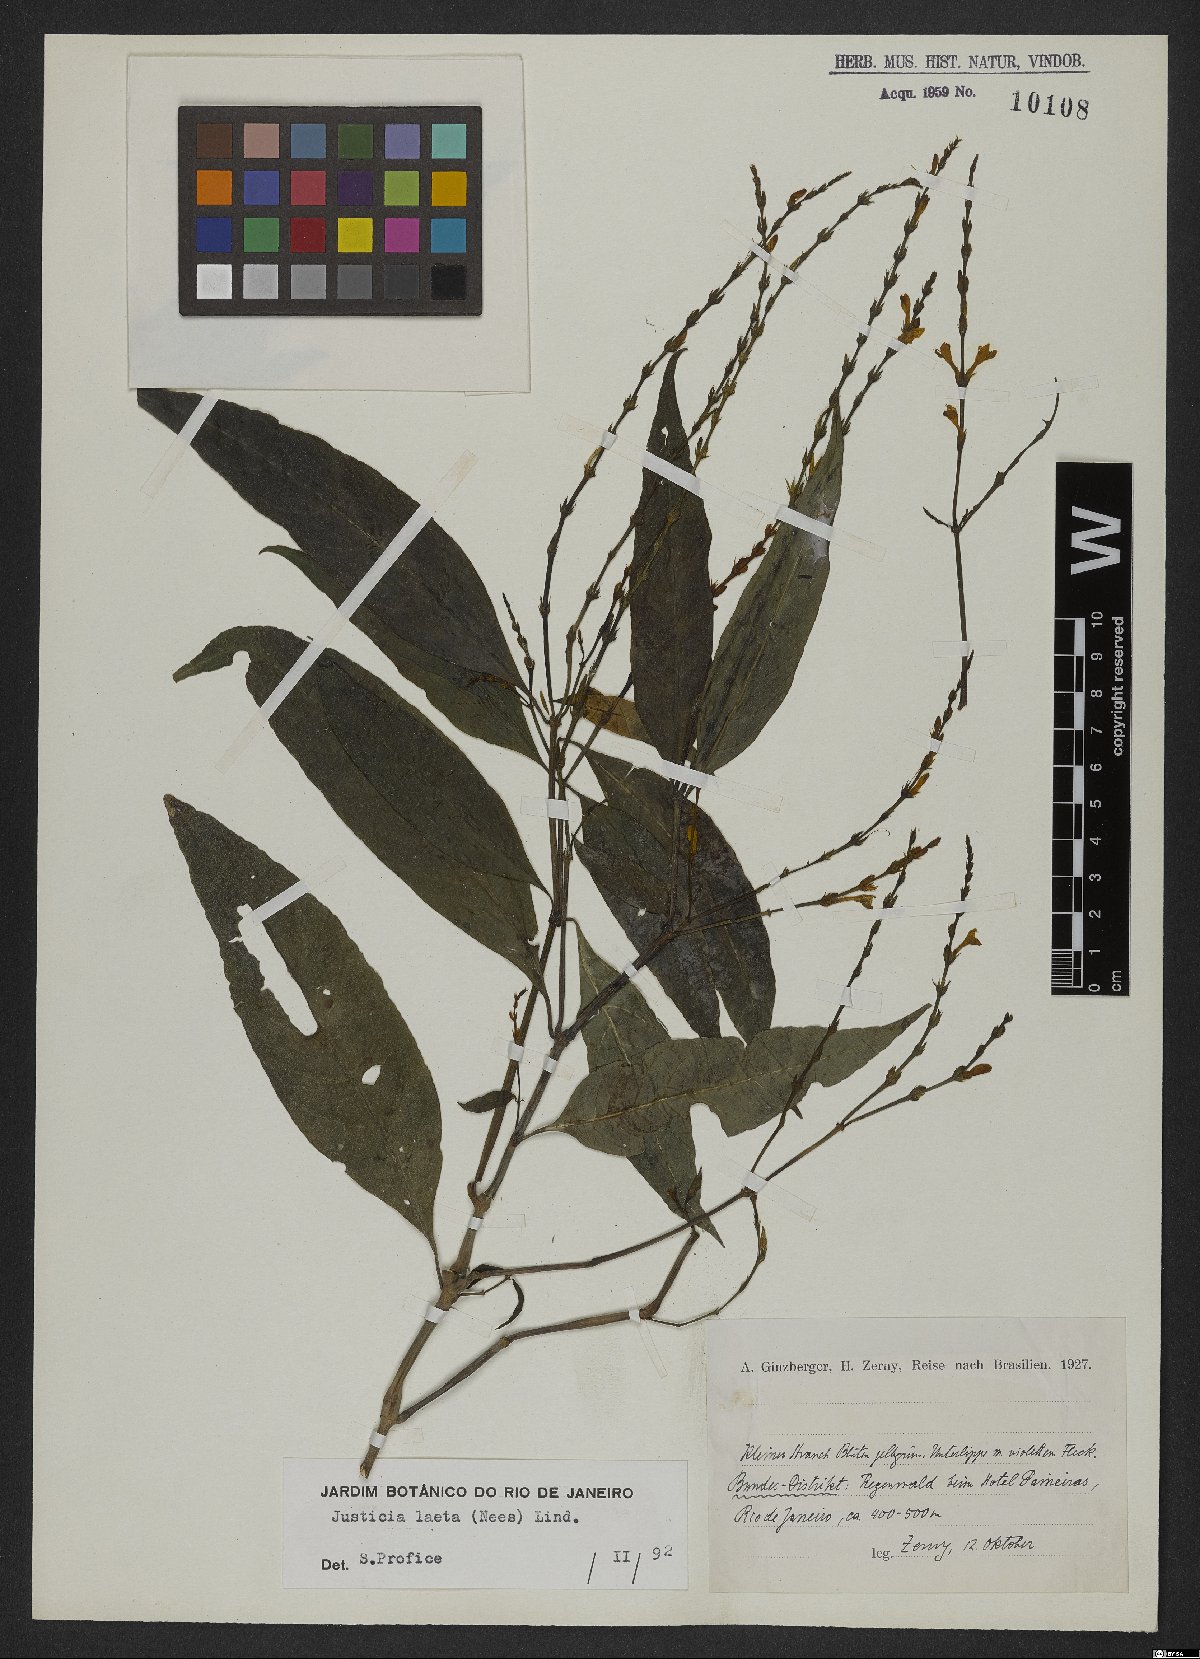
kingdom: Plantae
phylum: Tracheophyta
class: Magnoliopsida
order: Lamiales
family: Acanthaceae
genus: Avicennia
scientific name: Avicennia schaueriana
